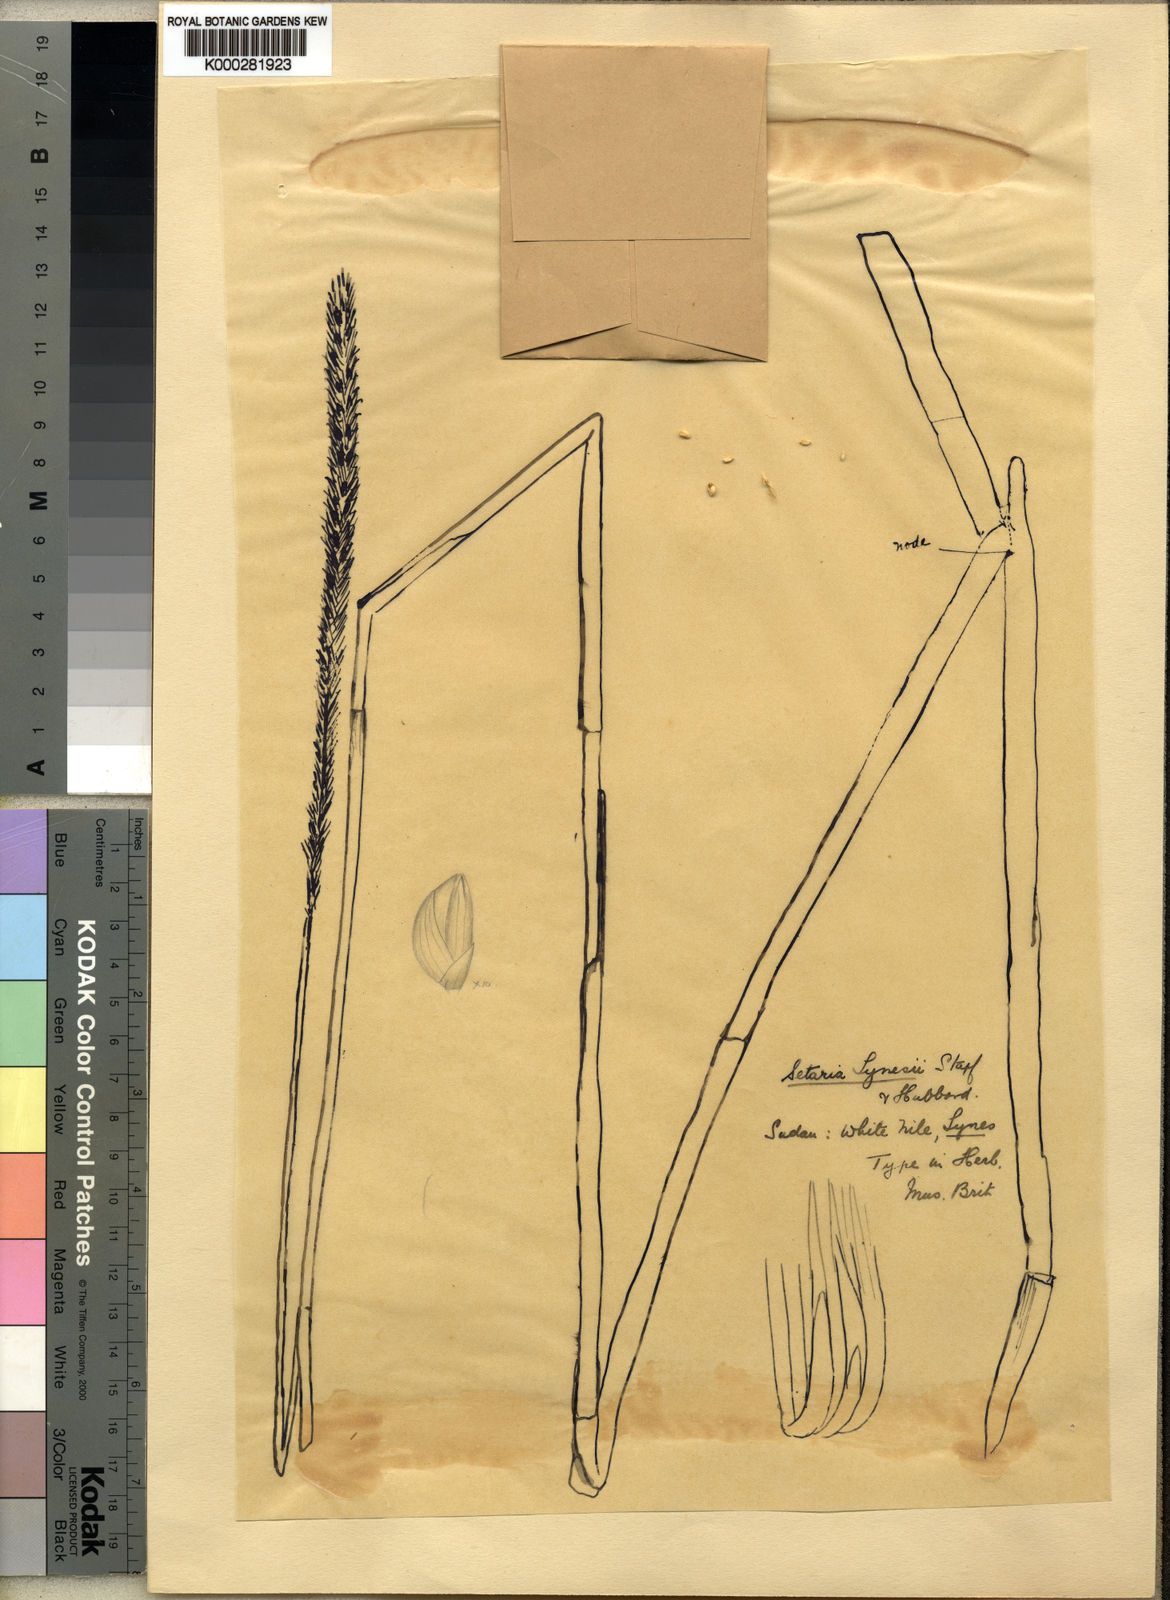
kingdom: Plantae
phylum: Tracheophyta
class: Liliopsida
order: Poales
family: Poaceae
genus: Setaria
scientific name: Setaria incrassata
